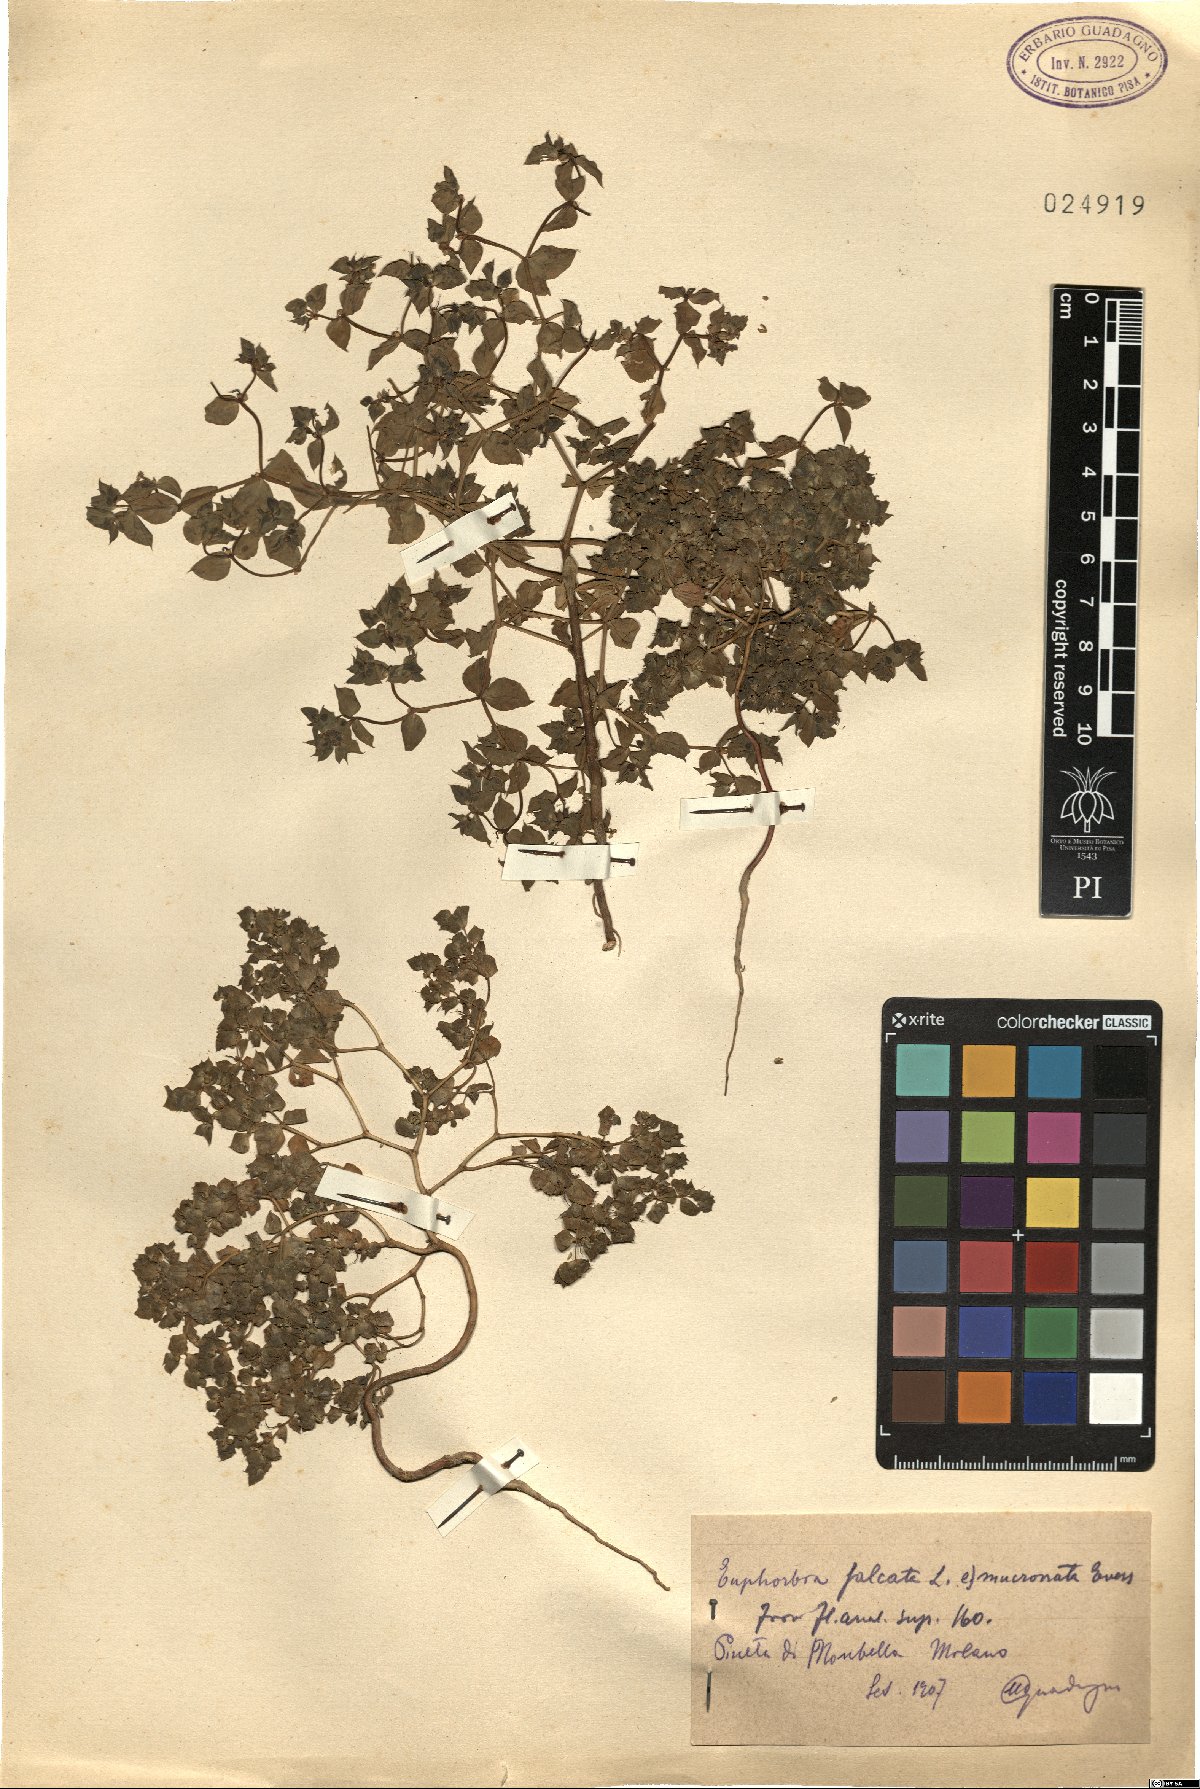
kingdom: Plantae
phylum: Tracheophyta
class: Magnoliopsida
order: Malpighiales
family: Euphorbiaceae
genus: Euphorbia
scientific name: Euphorbia falcata
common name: Sickle spurge
